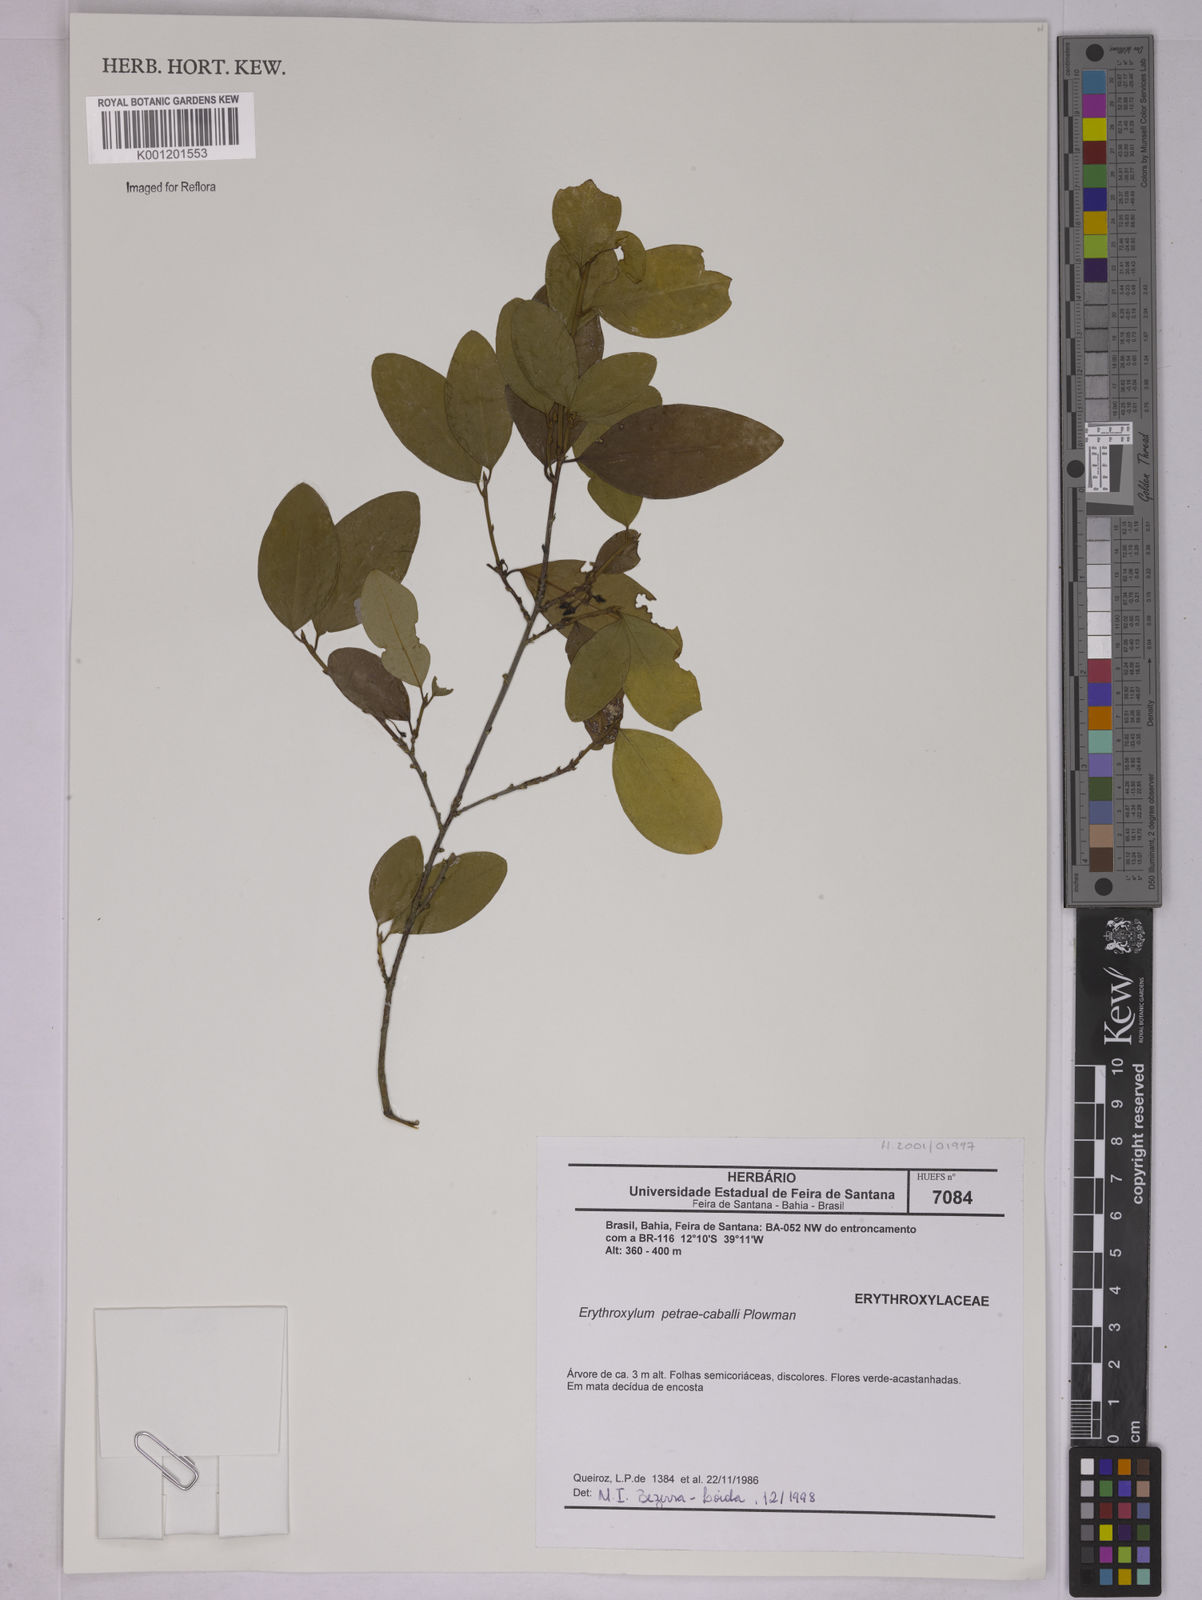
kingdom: Plantae
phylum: Tracheophyta
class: Magnoliopsida
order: Malpighiales
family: Erythroxylaceae
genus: Erythroxylum
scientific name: Erythroxylum petrae-caballi
